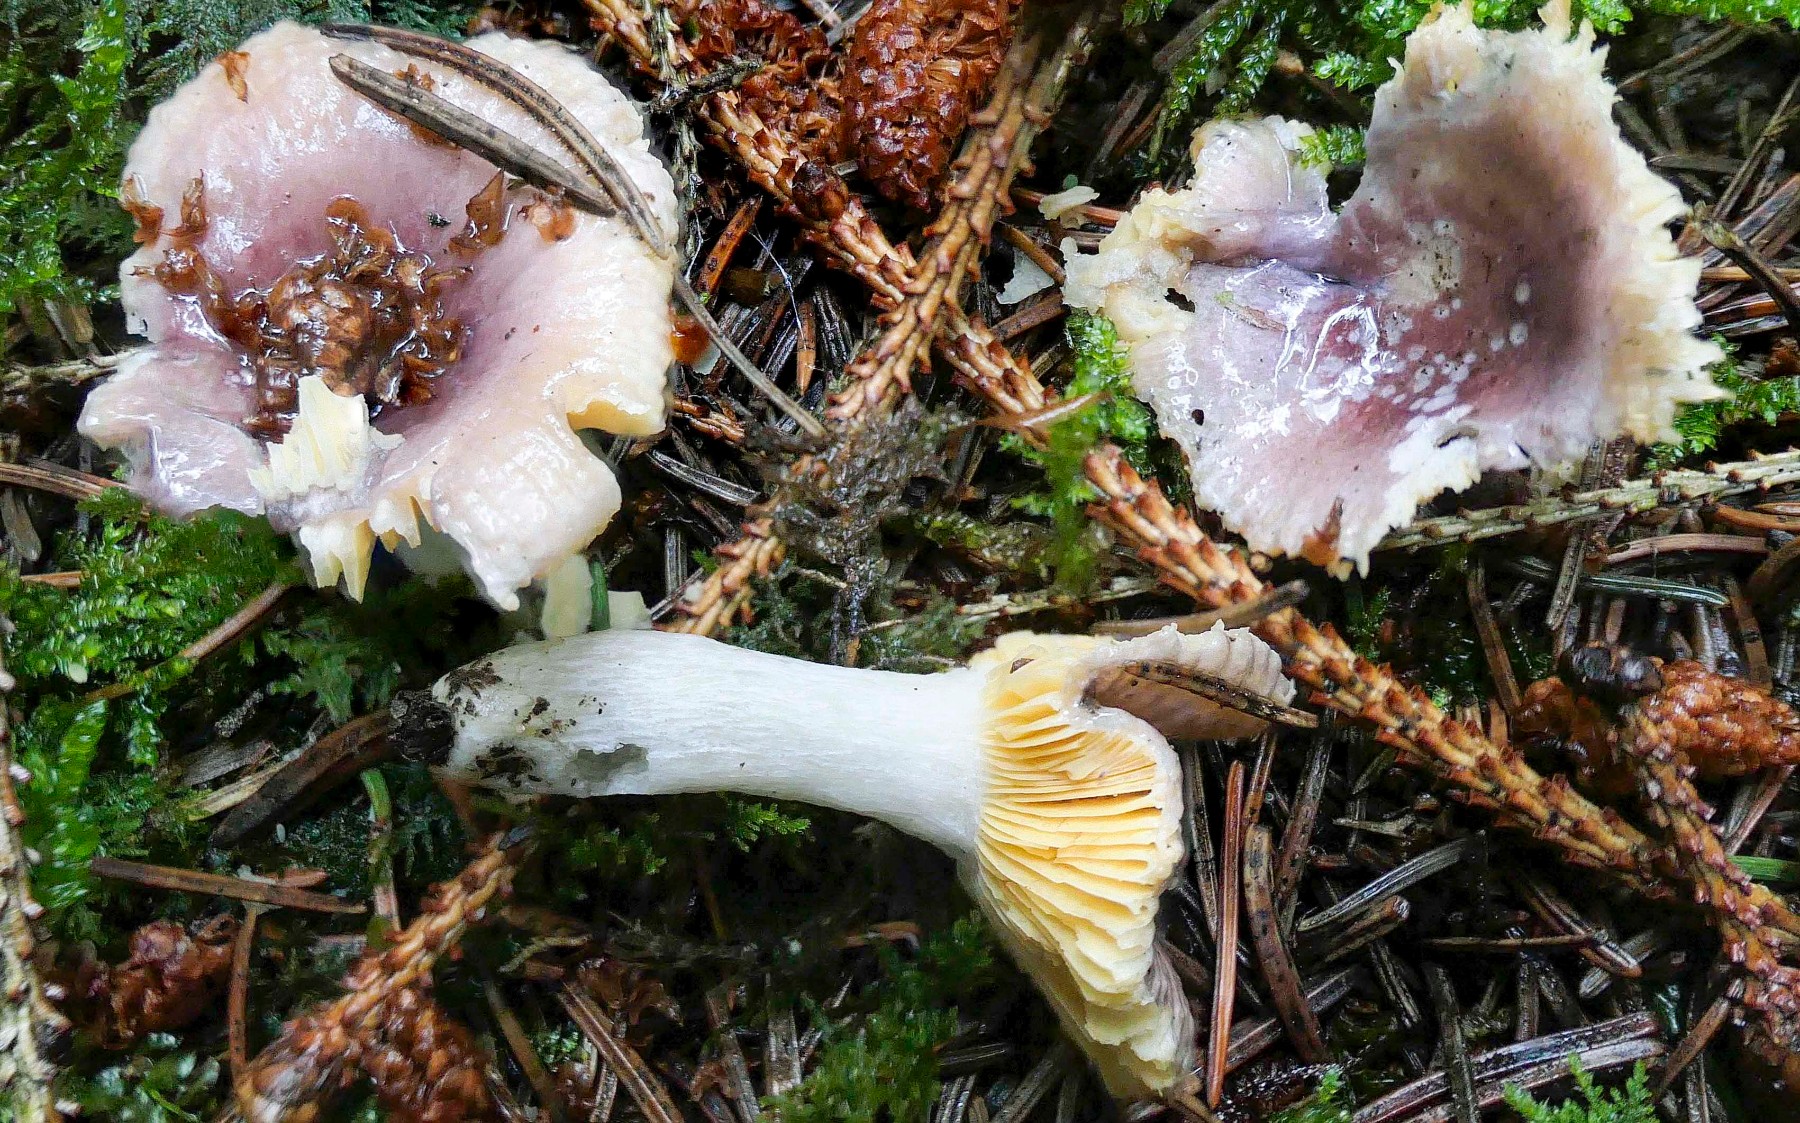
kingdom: Fungi
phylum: Basidiomycota
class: Agaricomycetes
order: Russulales
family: Russulaceae
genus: Russula
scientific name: Russula nauseosa
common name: spinkel skørhat
